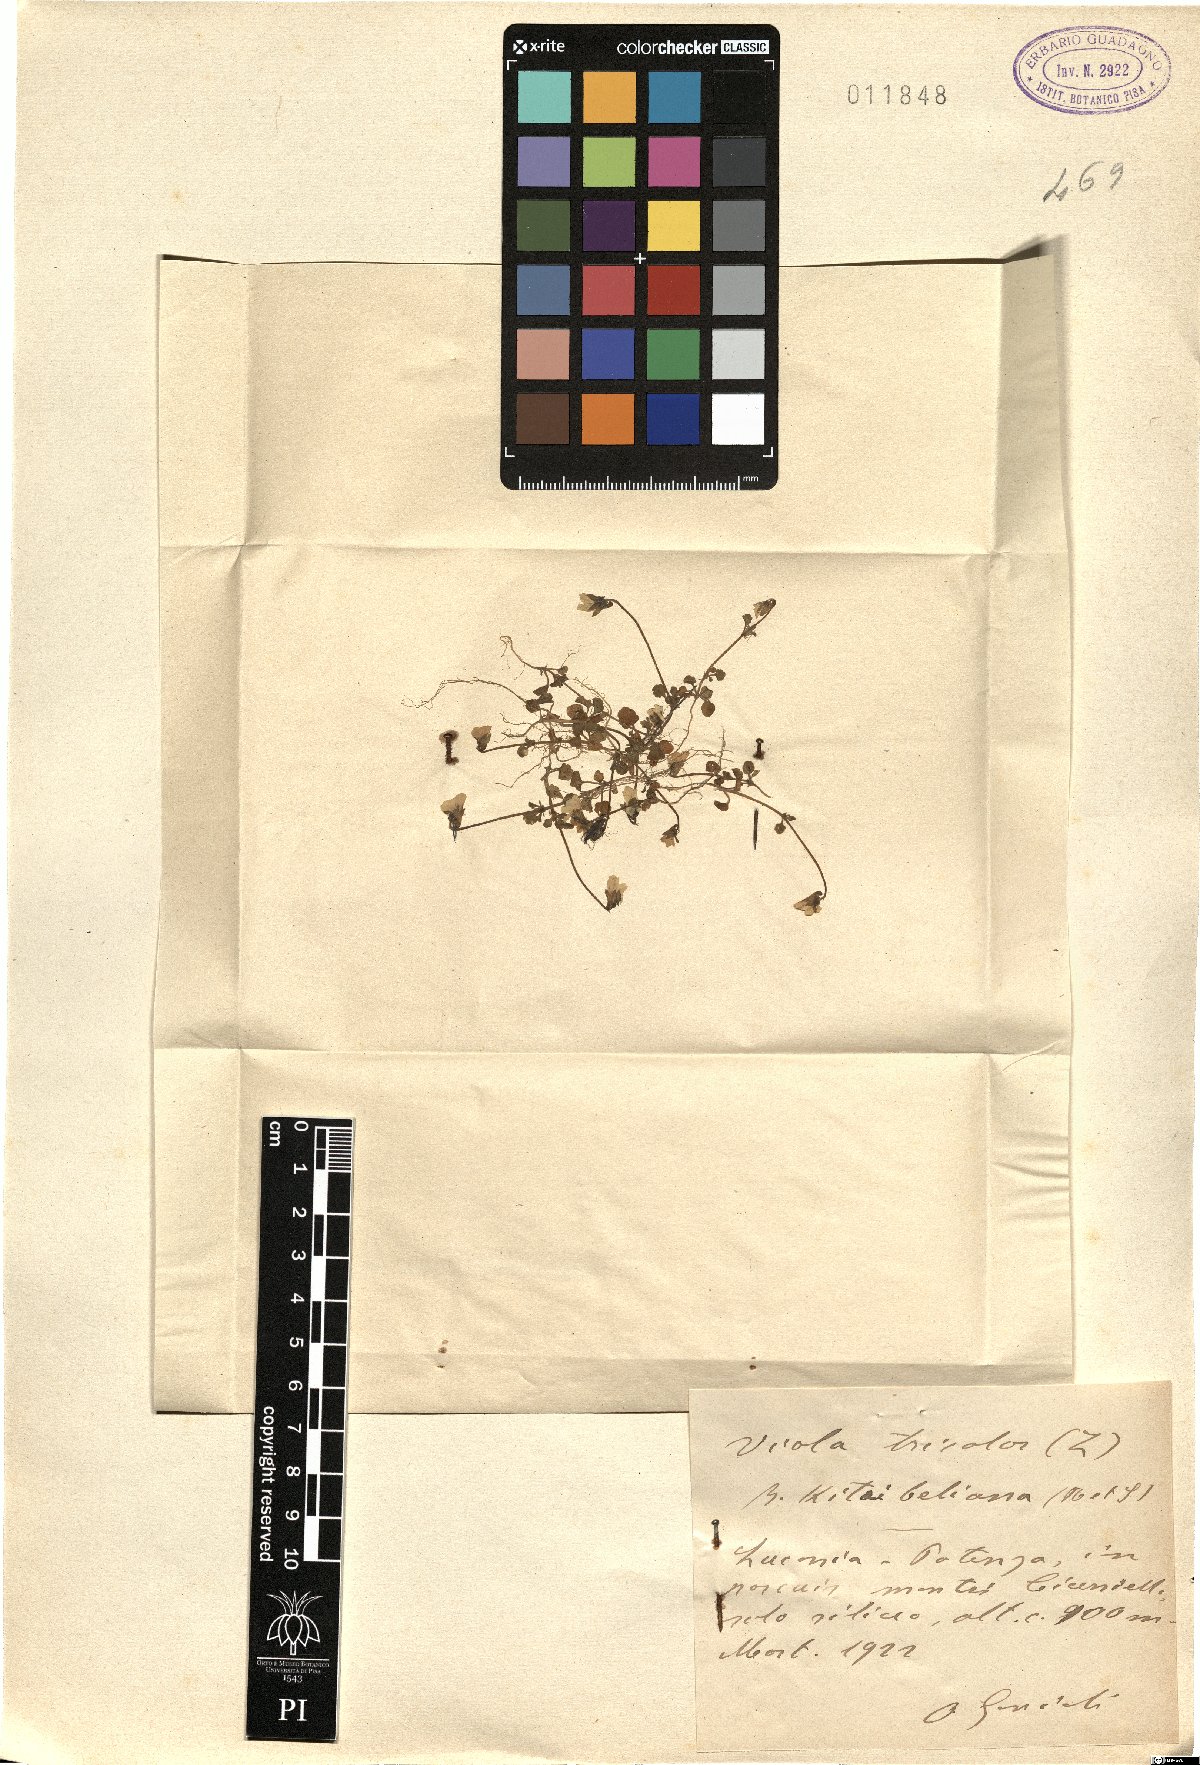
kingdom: Plantae
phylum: Tracheophyta
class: Magnoliopsida
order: Malpighiales
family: Violaceae
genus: Viola
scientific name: Viola kitaibeliana
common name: Dwarf pansy
